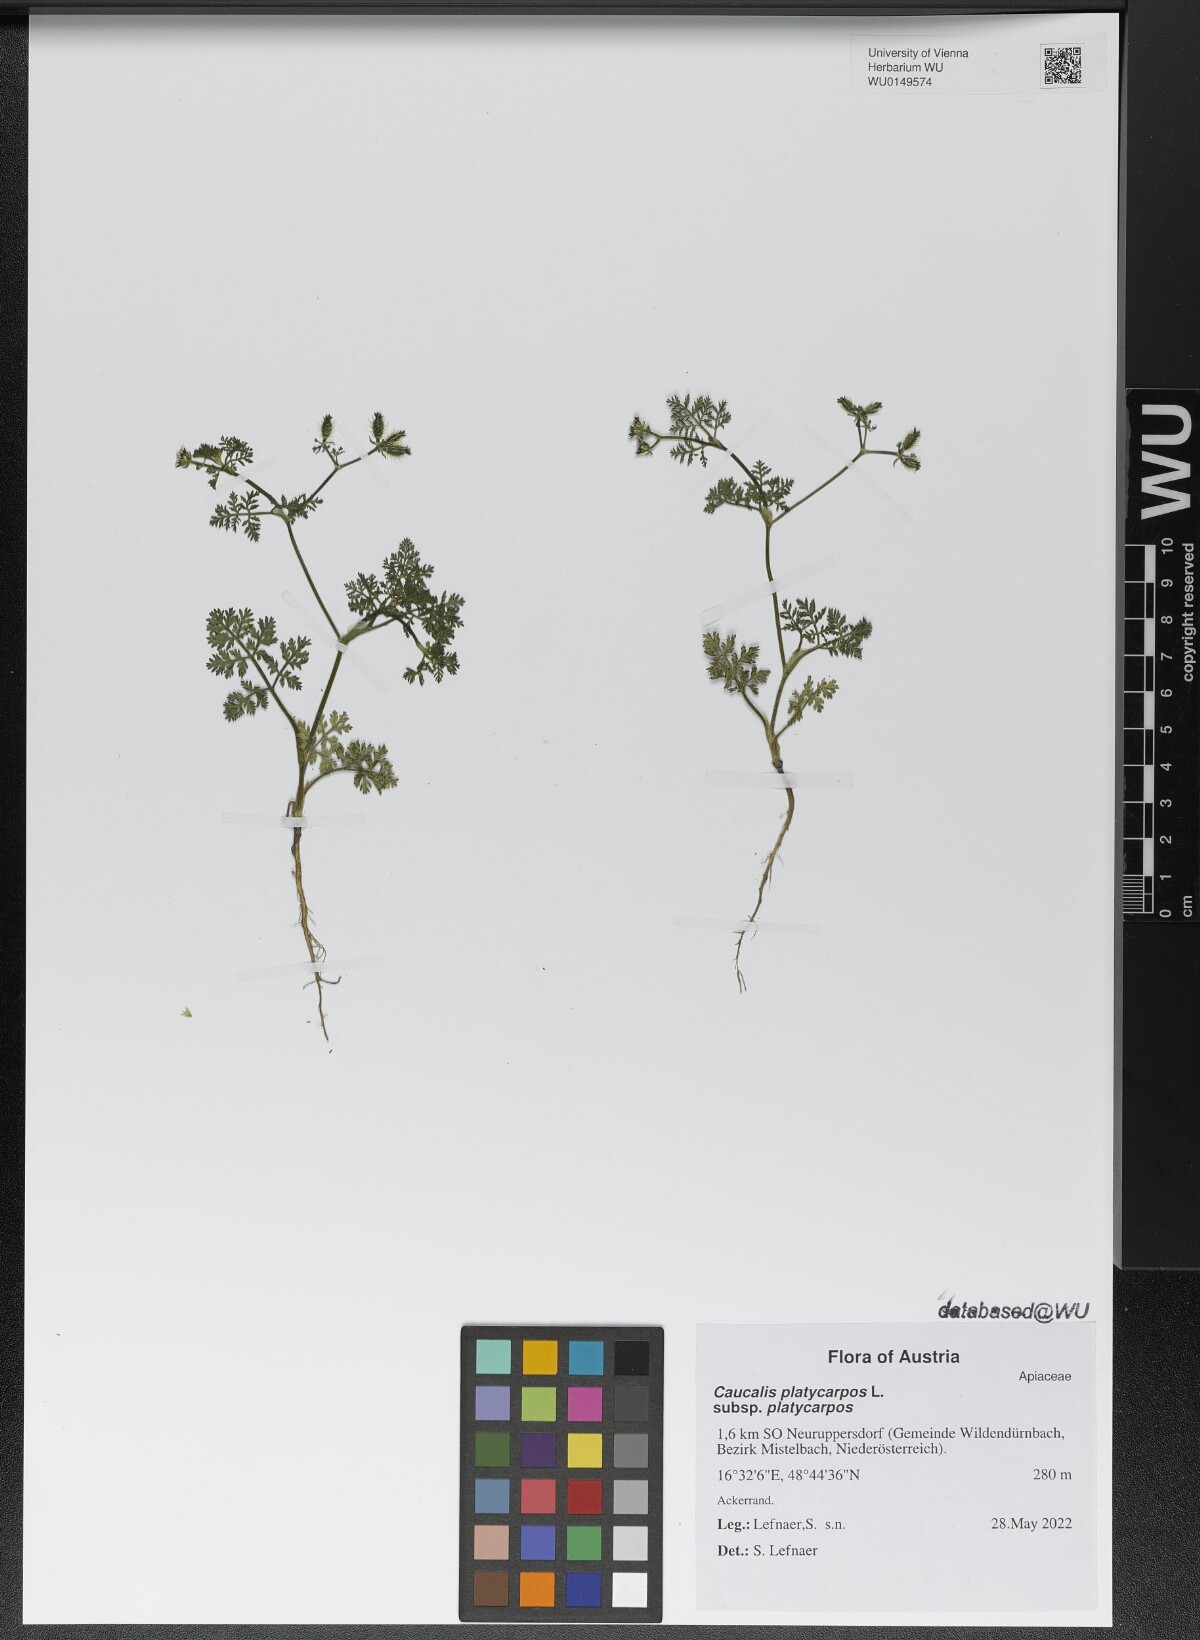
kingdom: Plantae
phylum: Tracheophyta
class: Magnoliopsida
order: Apiales
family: Apiaceae
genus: Caucalis
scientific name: Caucalis platycarpos
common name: Small bur-parsley
